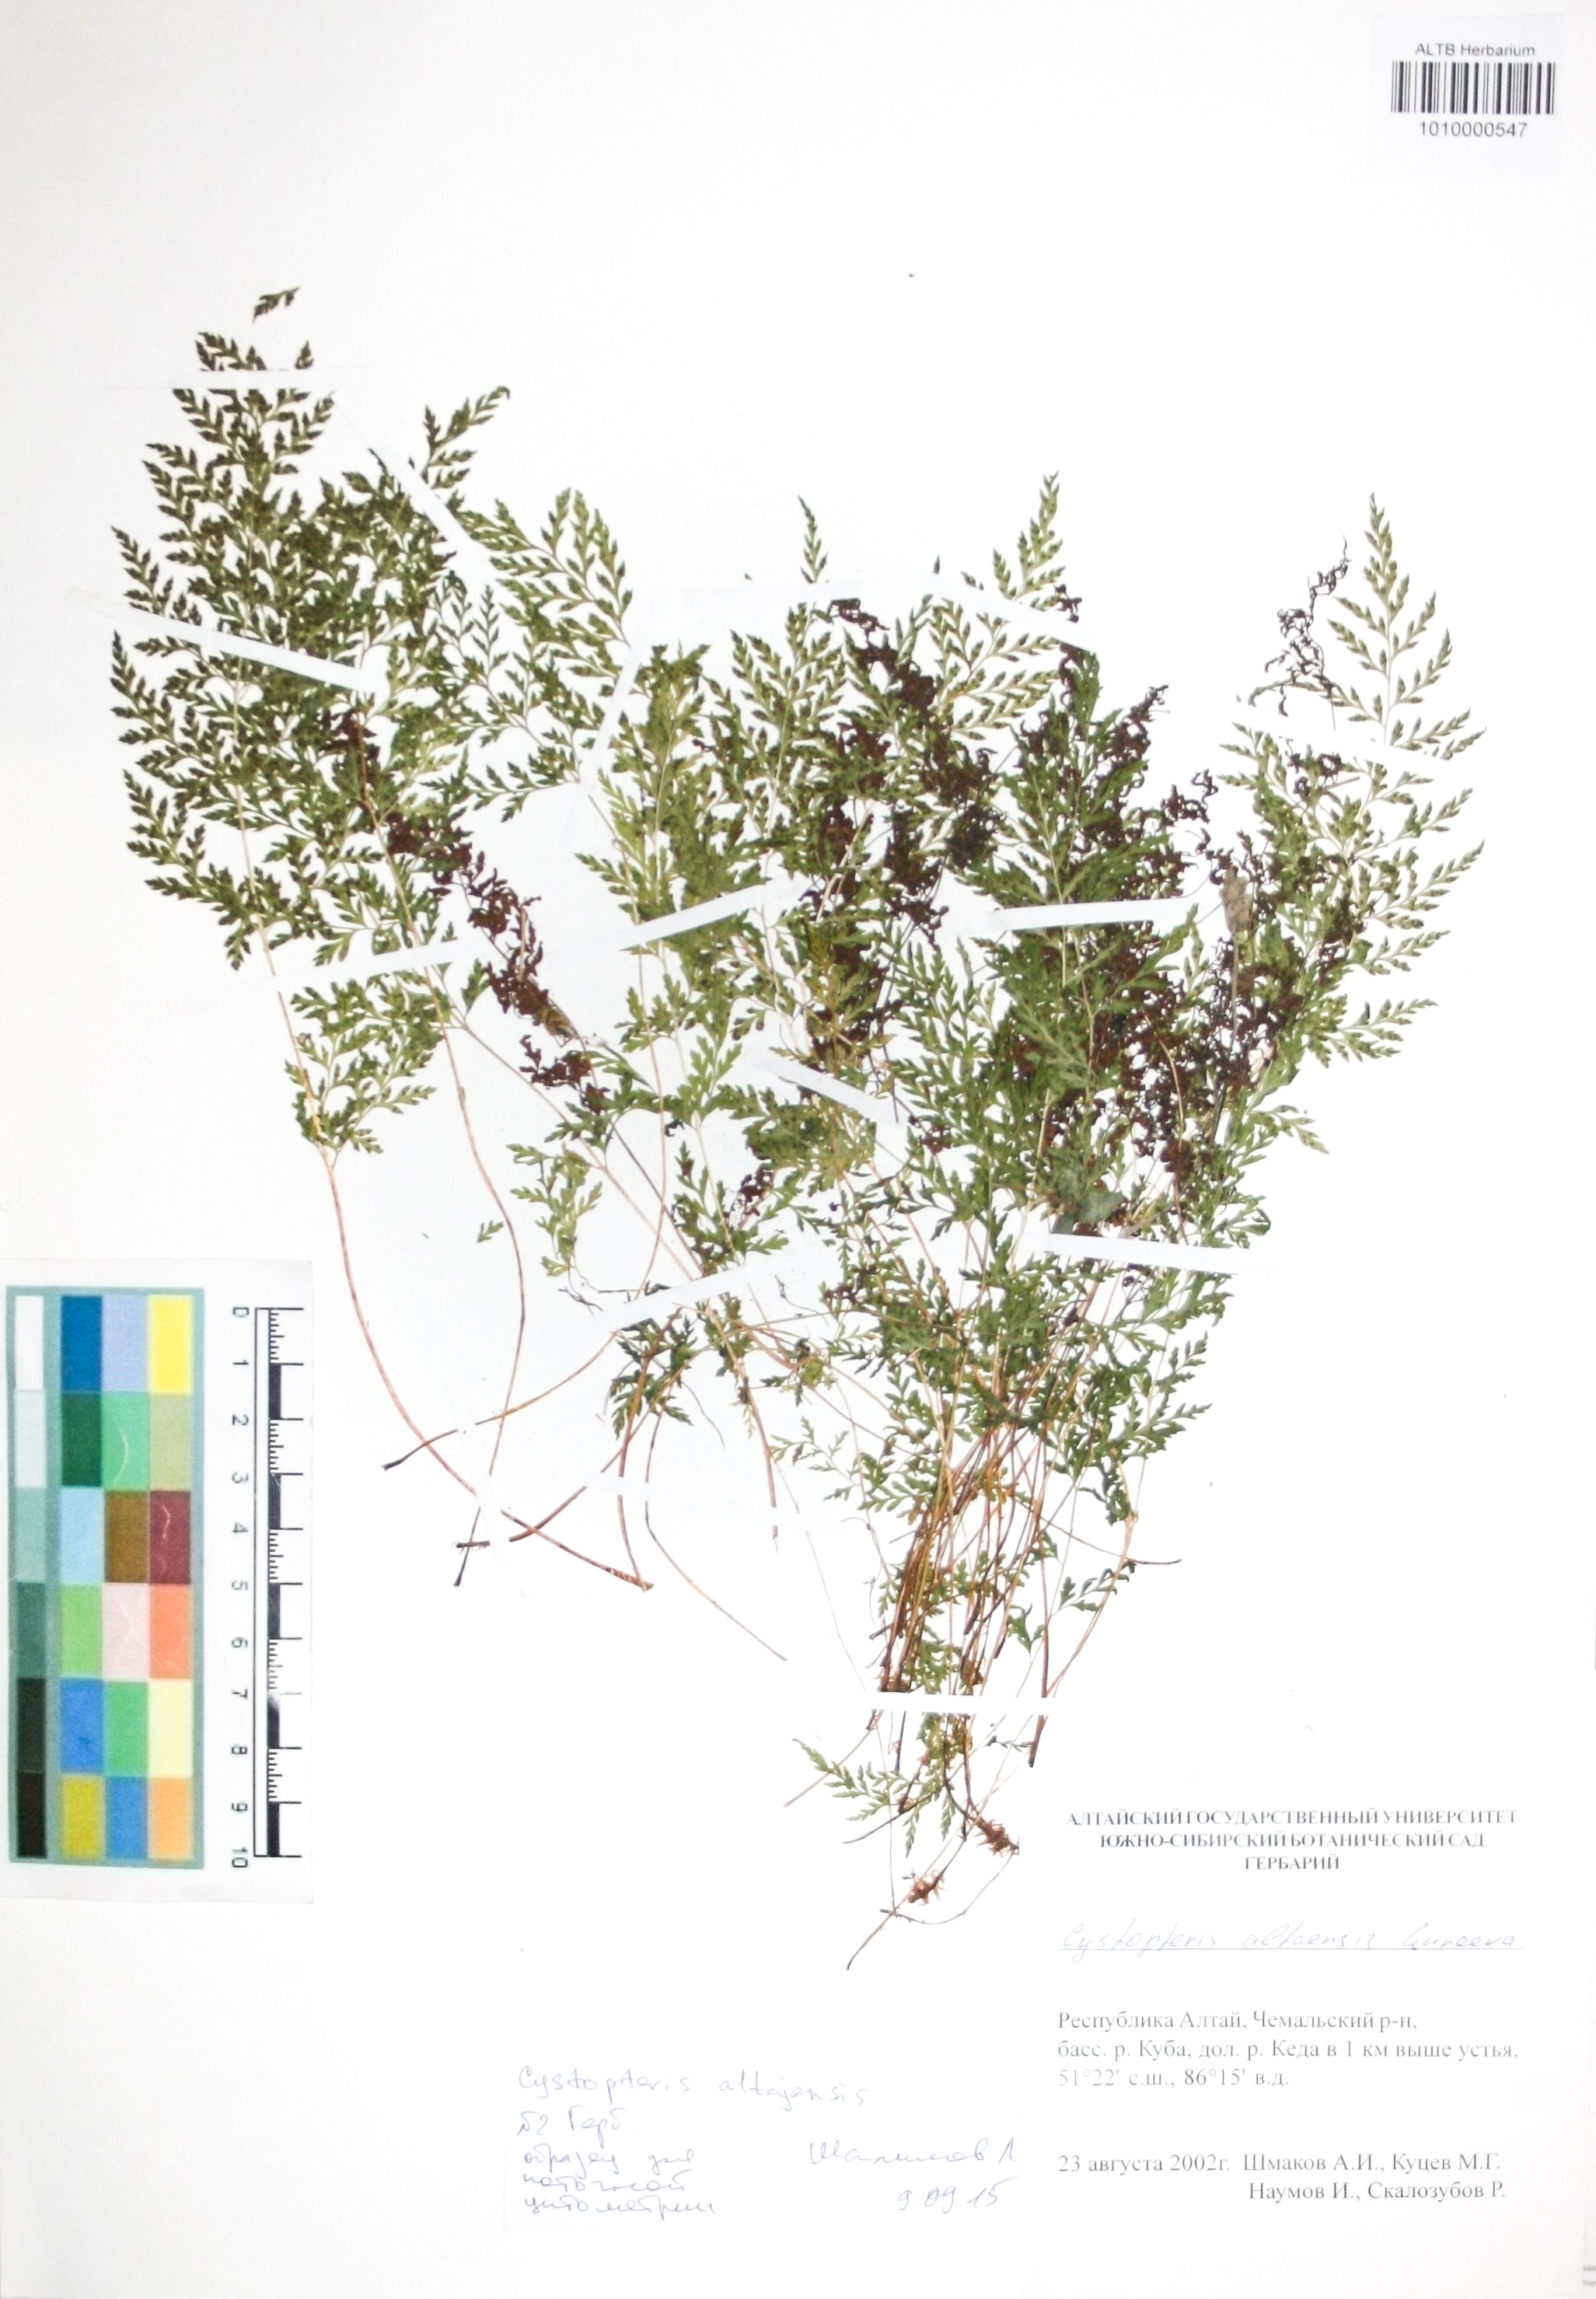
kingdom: Plantae
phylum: Tracheophyta
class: Polypodiopsida
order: Polypodiales
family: Cystopteridaceae
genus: Cystopteris
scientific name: Cystopteris diaphana
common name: Greenish bladder-fern
